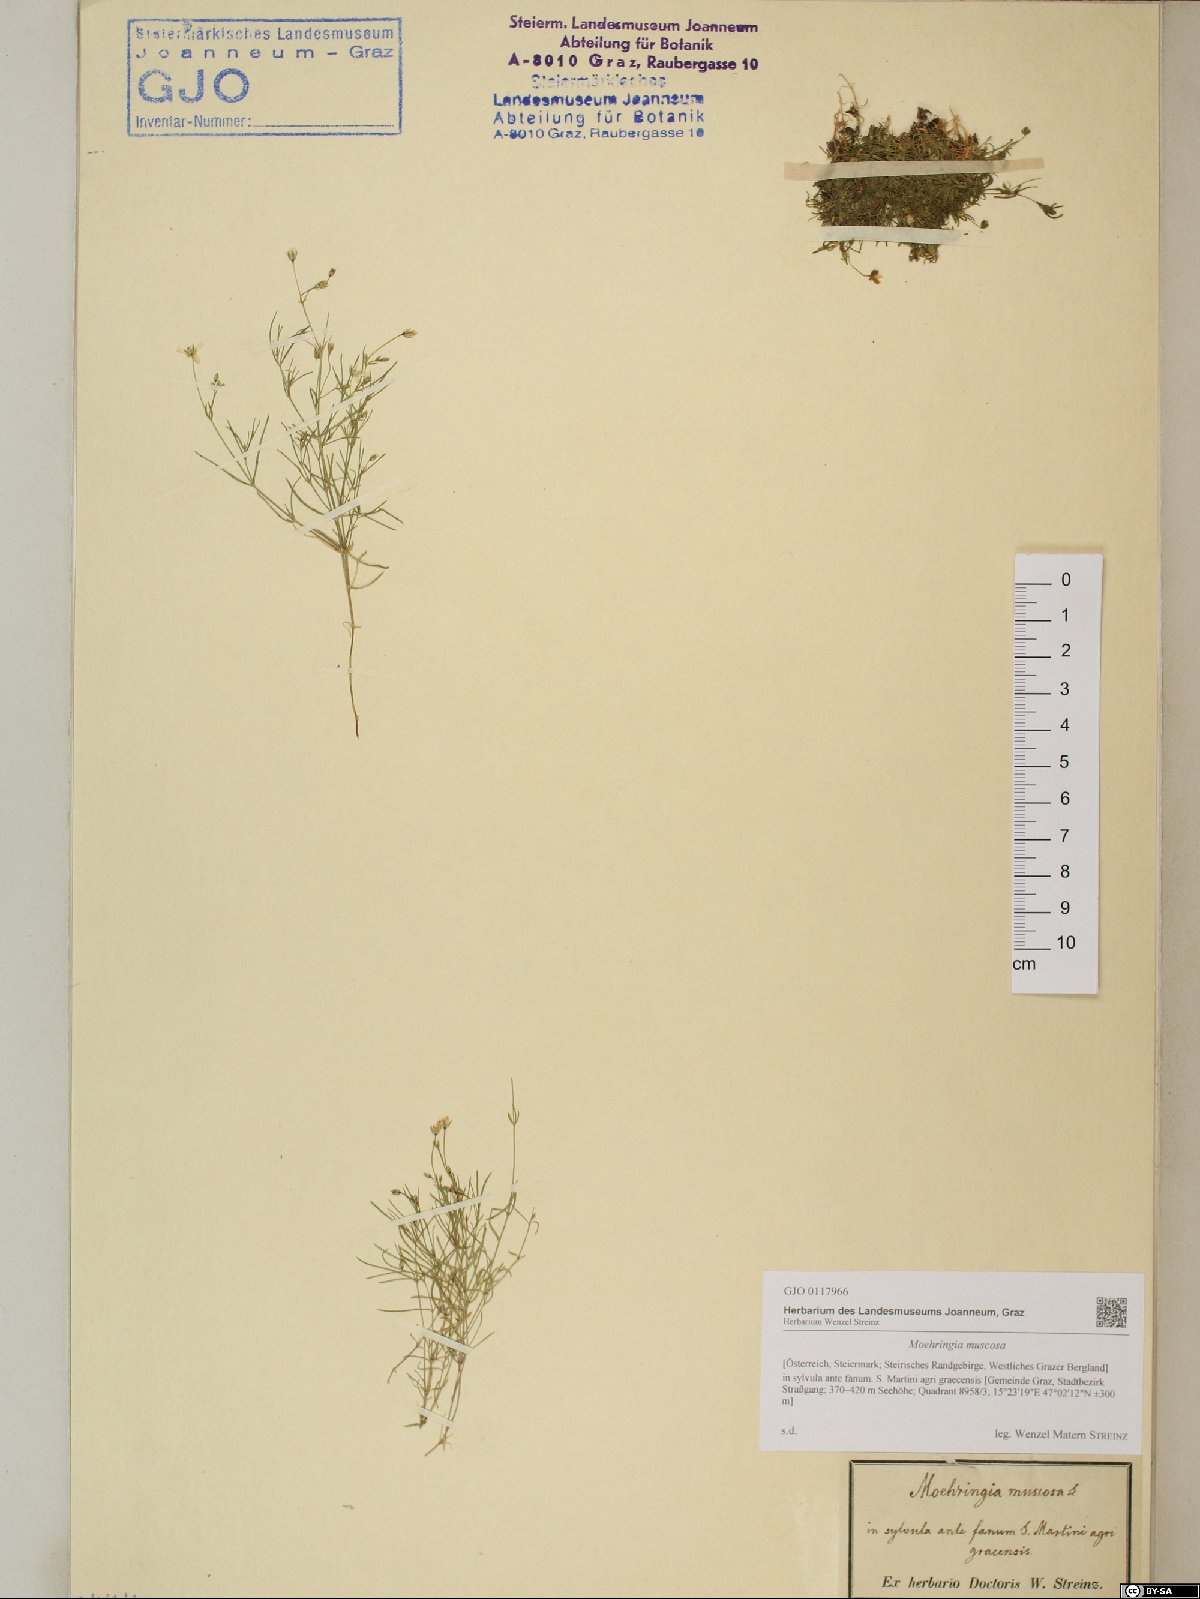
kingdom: Plantae
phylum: Tracheophyta
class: Magnoliopsida
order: Caryophyllales
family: Caryophyllaceae
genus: Moehringia
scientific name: Moehringia muscosa
